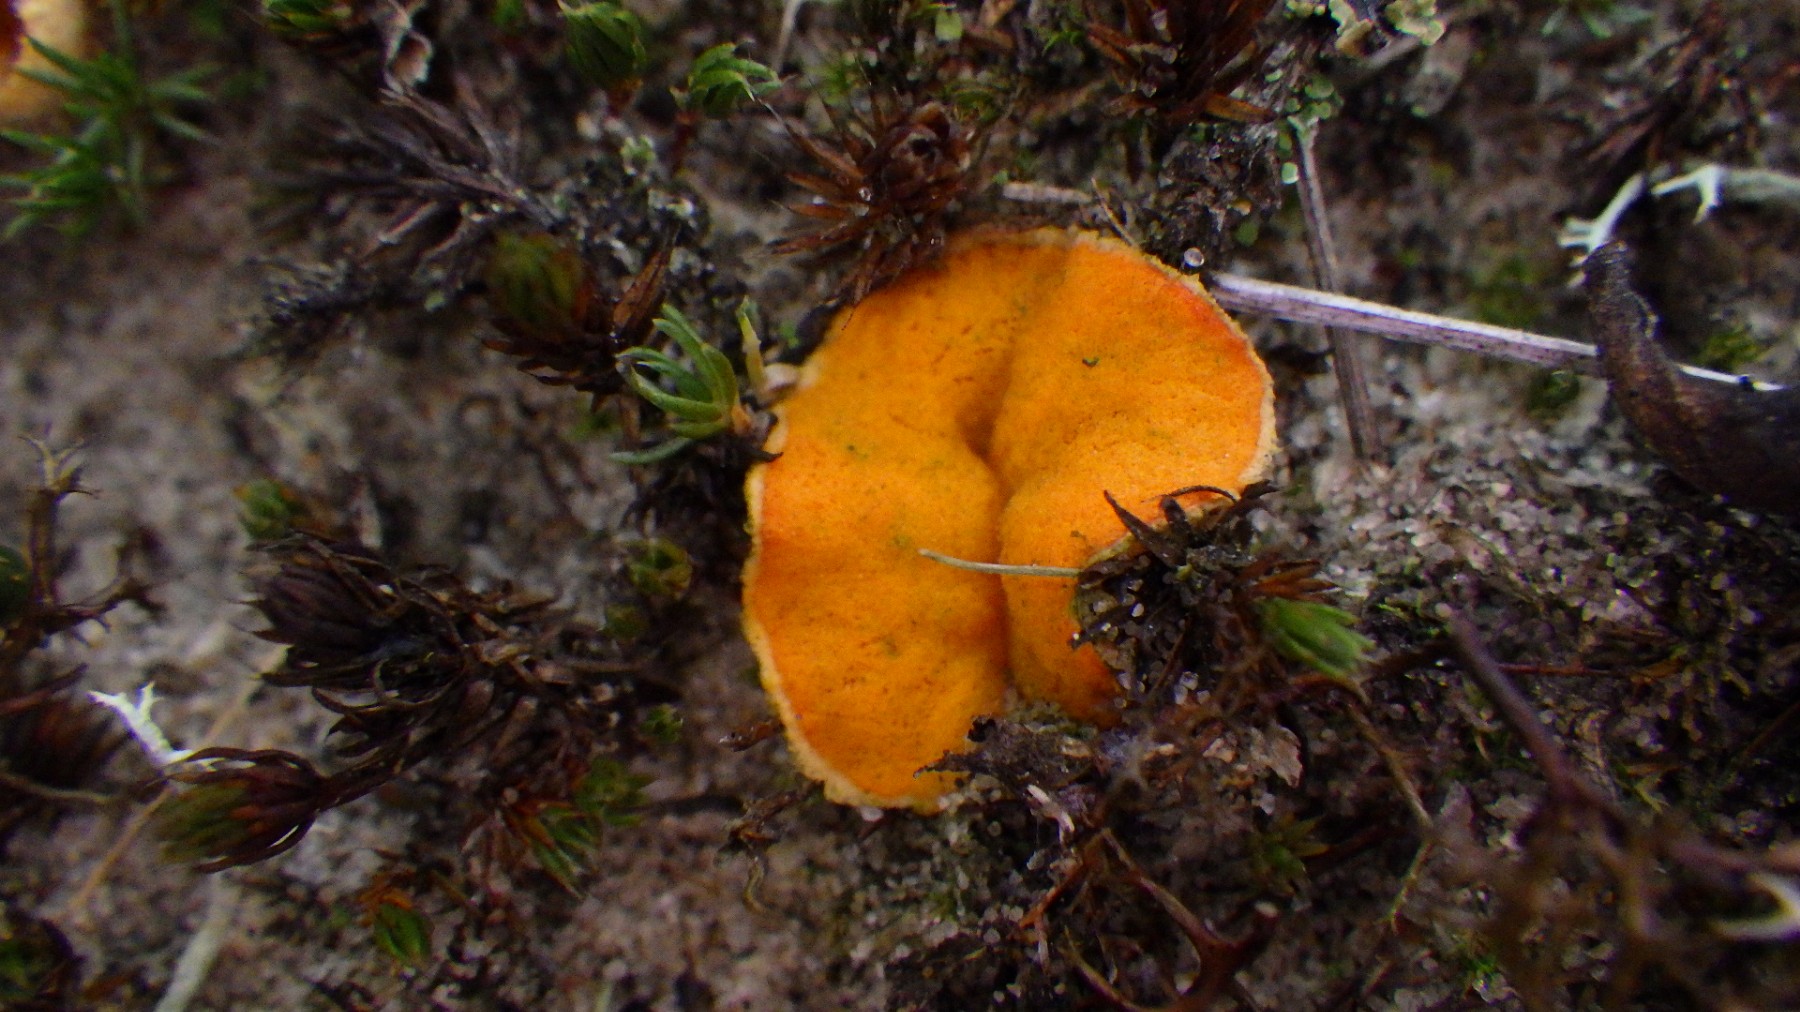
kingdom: Fungi
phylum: Ascomycota
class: Pezizomycetes
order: Pezizales
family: Pyronemataceae
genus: Neottiella
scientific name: Neottiella
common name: mosbæger
